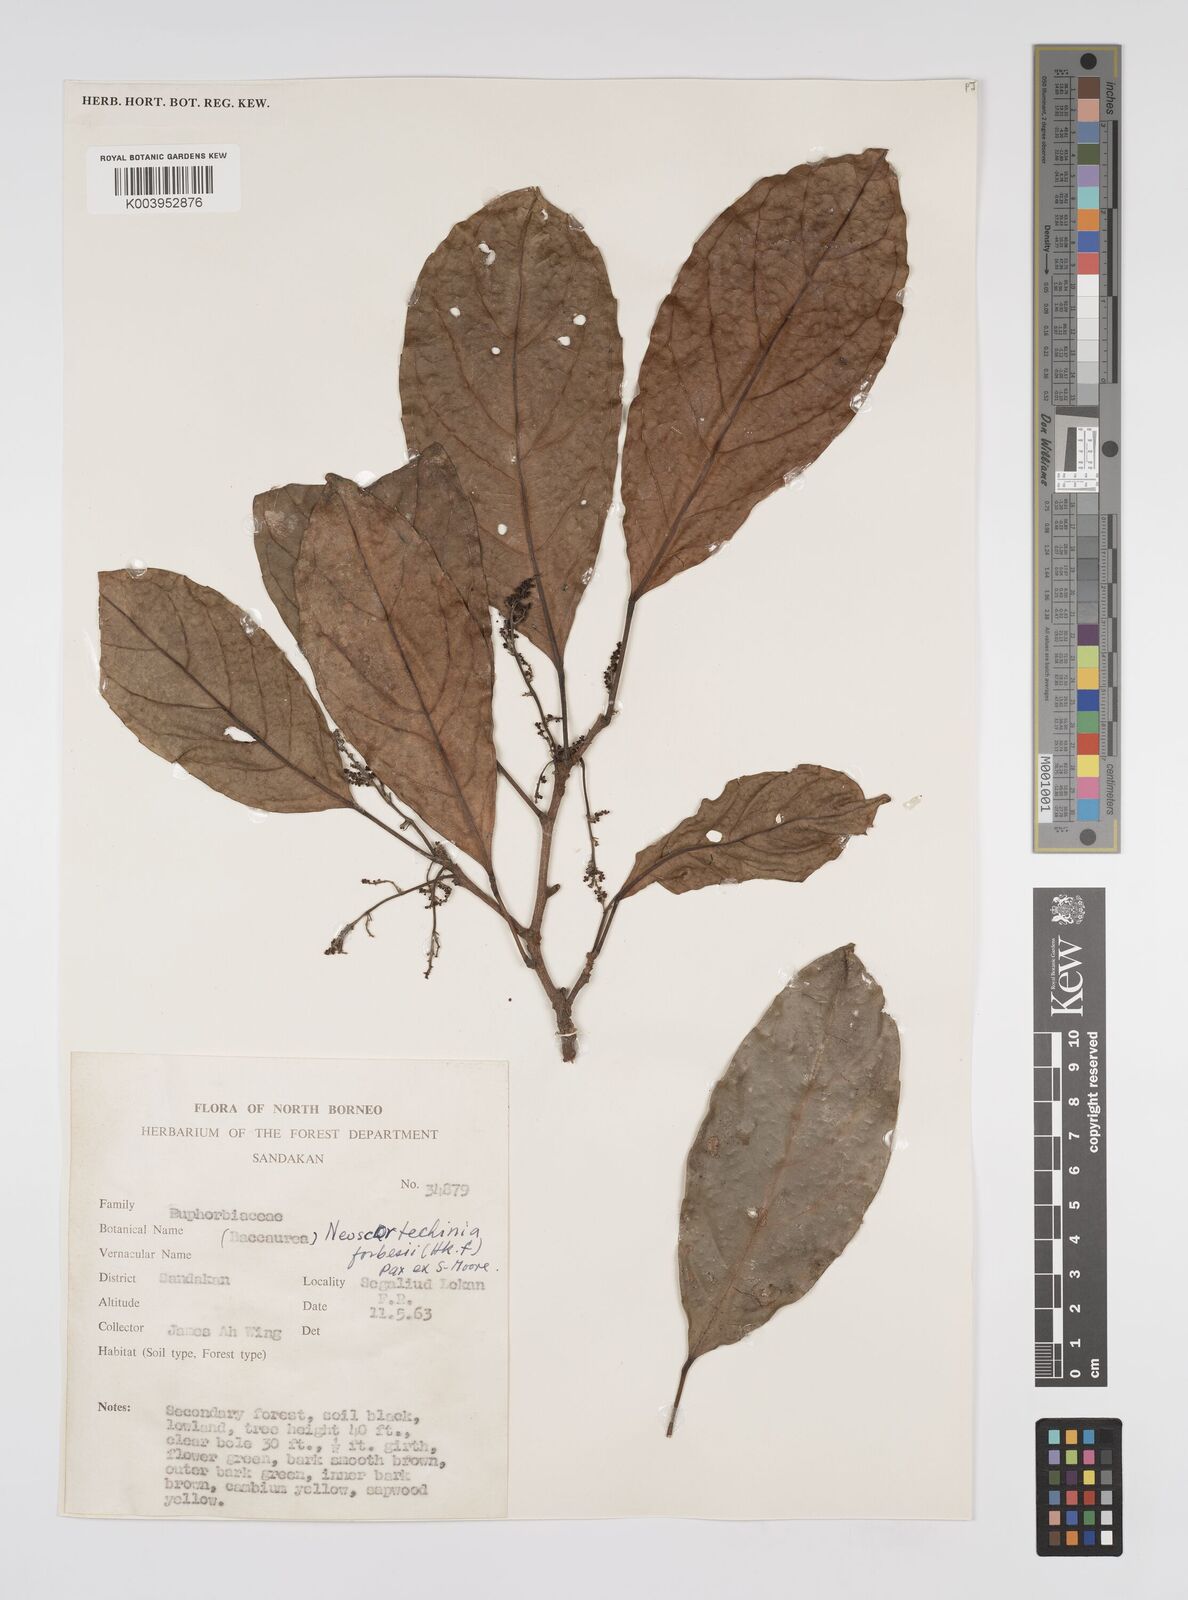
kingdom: Plantae
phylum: Tracheophyta
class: Magnoliopsida
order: Malpighiales
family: Euphorbiaceae
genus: Neoscortechinia
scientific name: Neoscortechinia philippinensis
